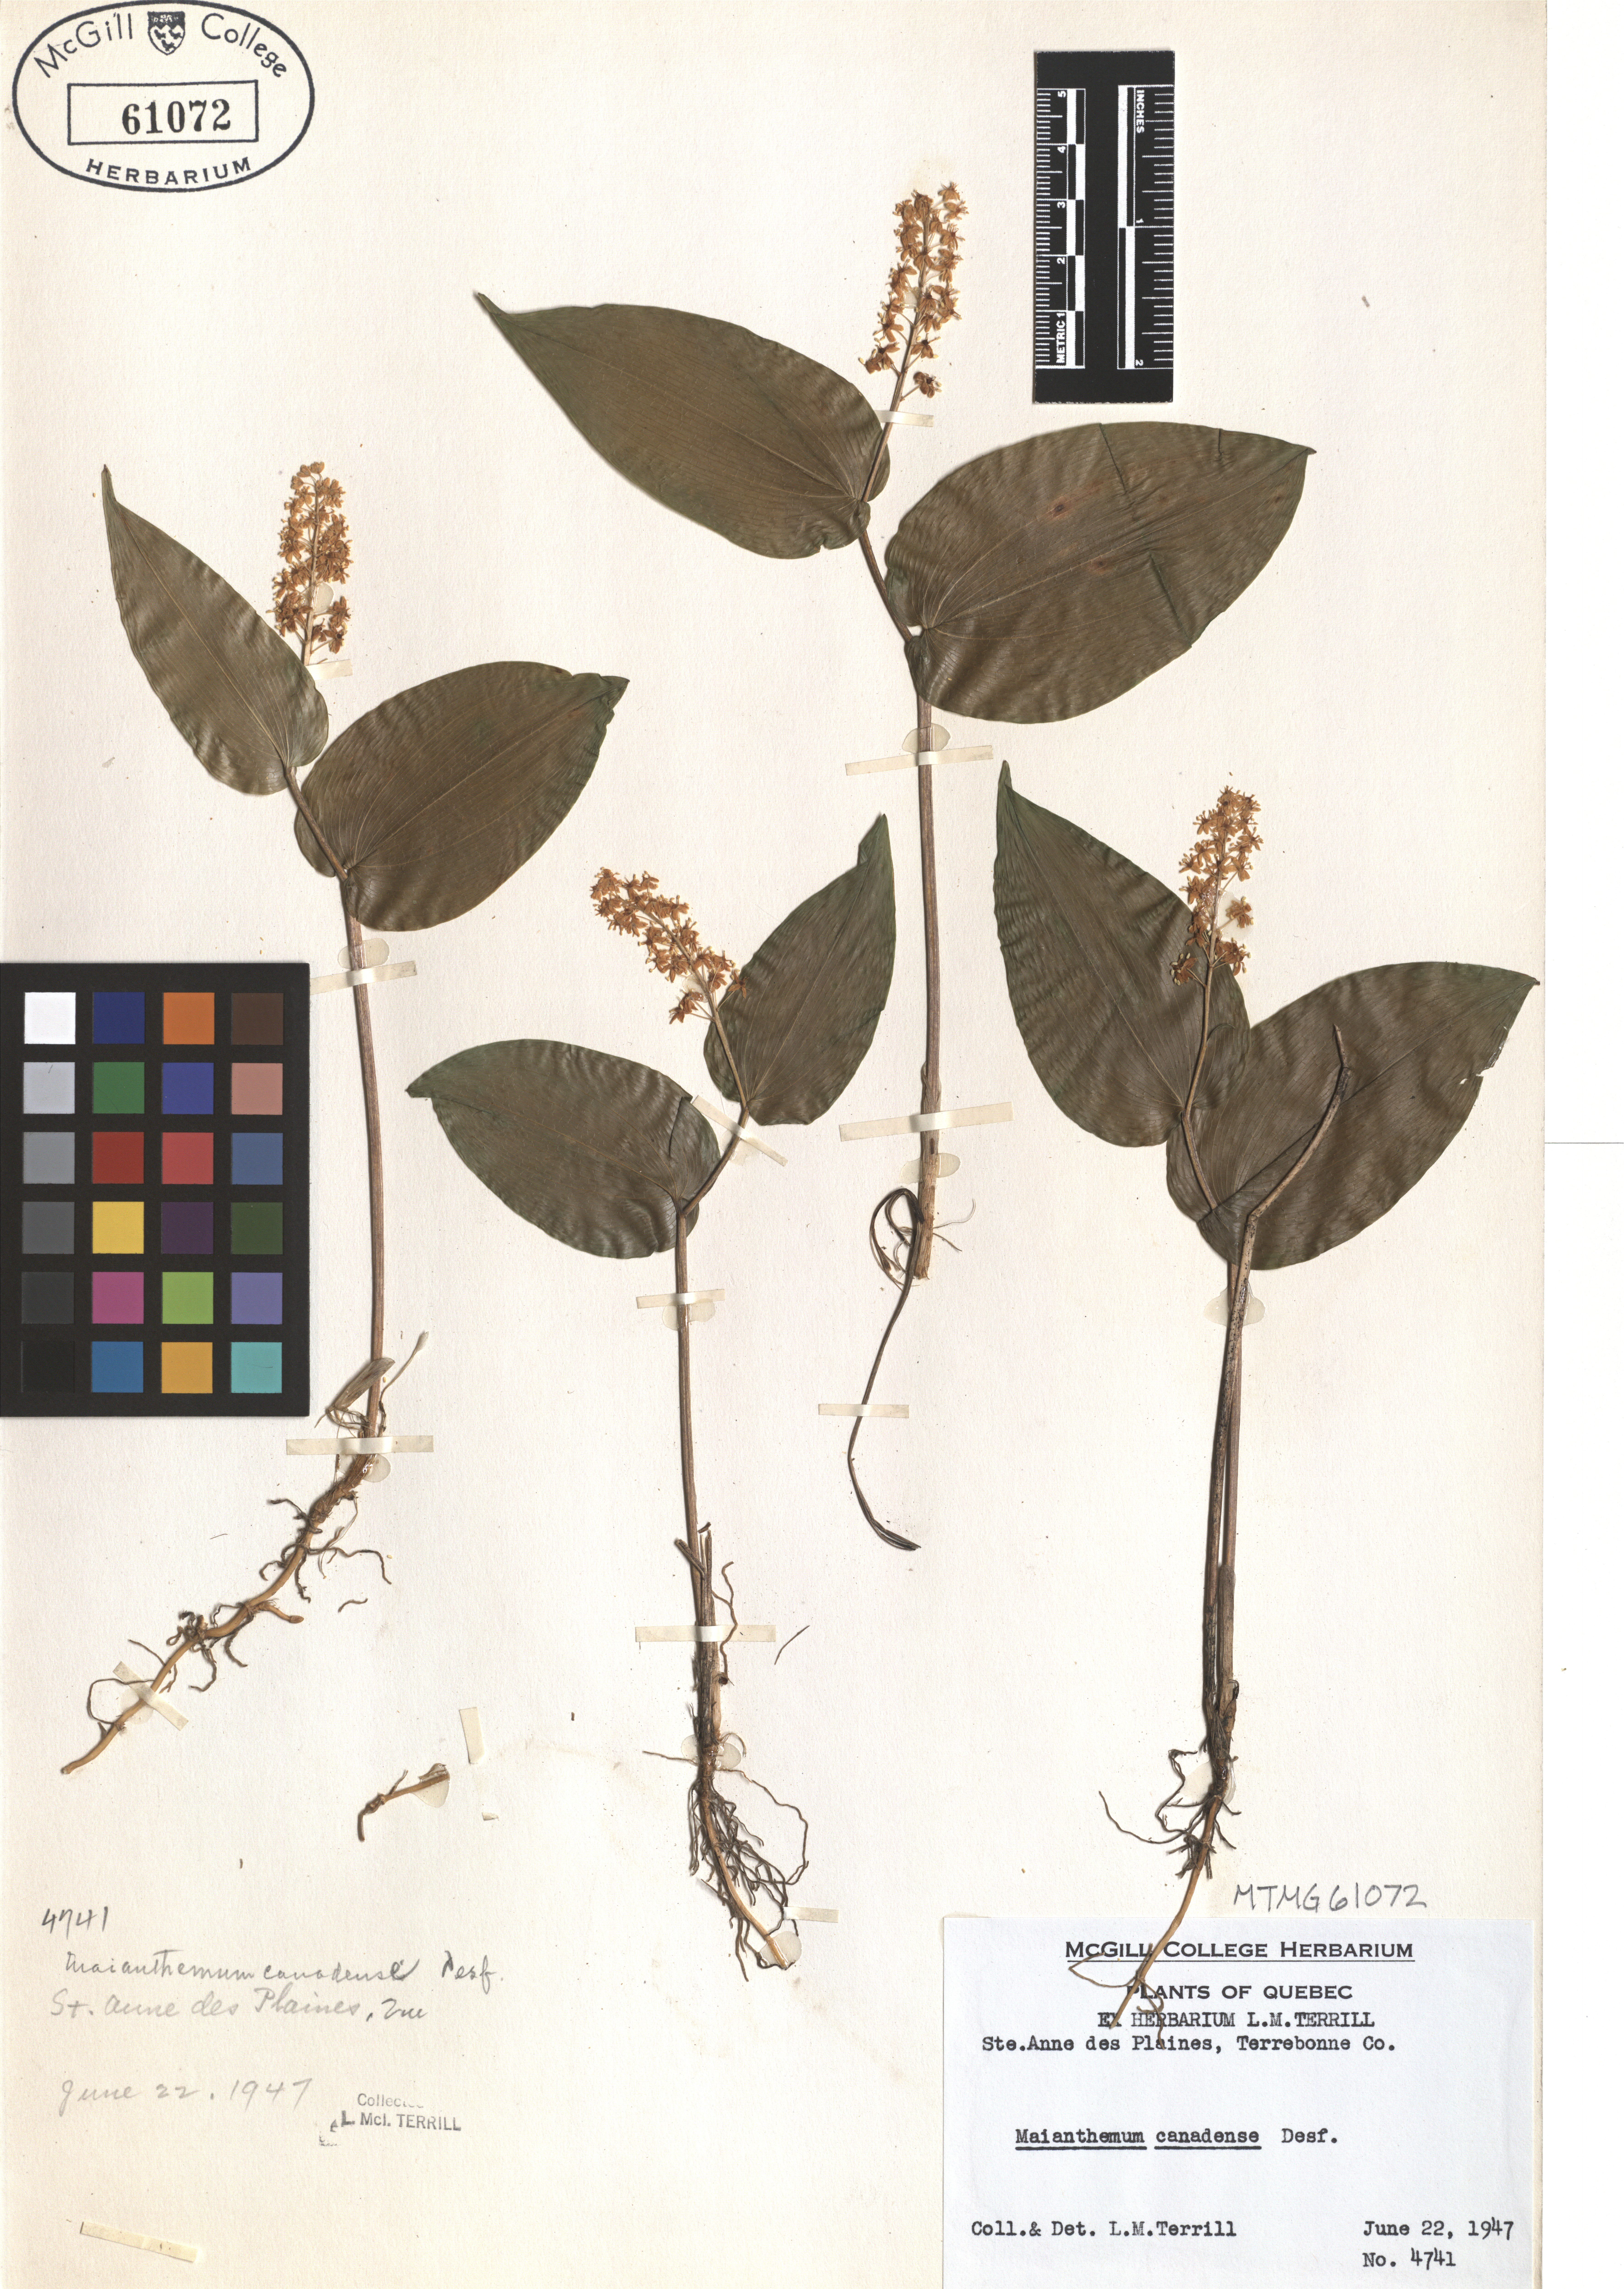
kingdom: Plantae
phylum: Tracheophyta
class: Liliopsida
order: Asparagales
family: Asparagaceae
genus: Maianthemum
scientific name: Maianthemum canadense
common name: False lily-of-the-valley
